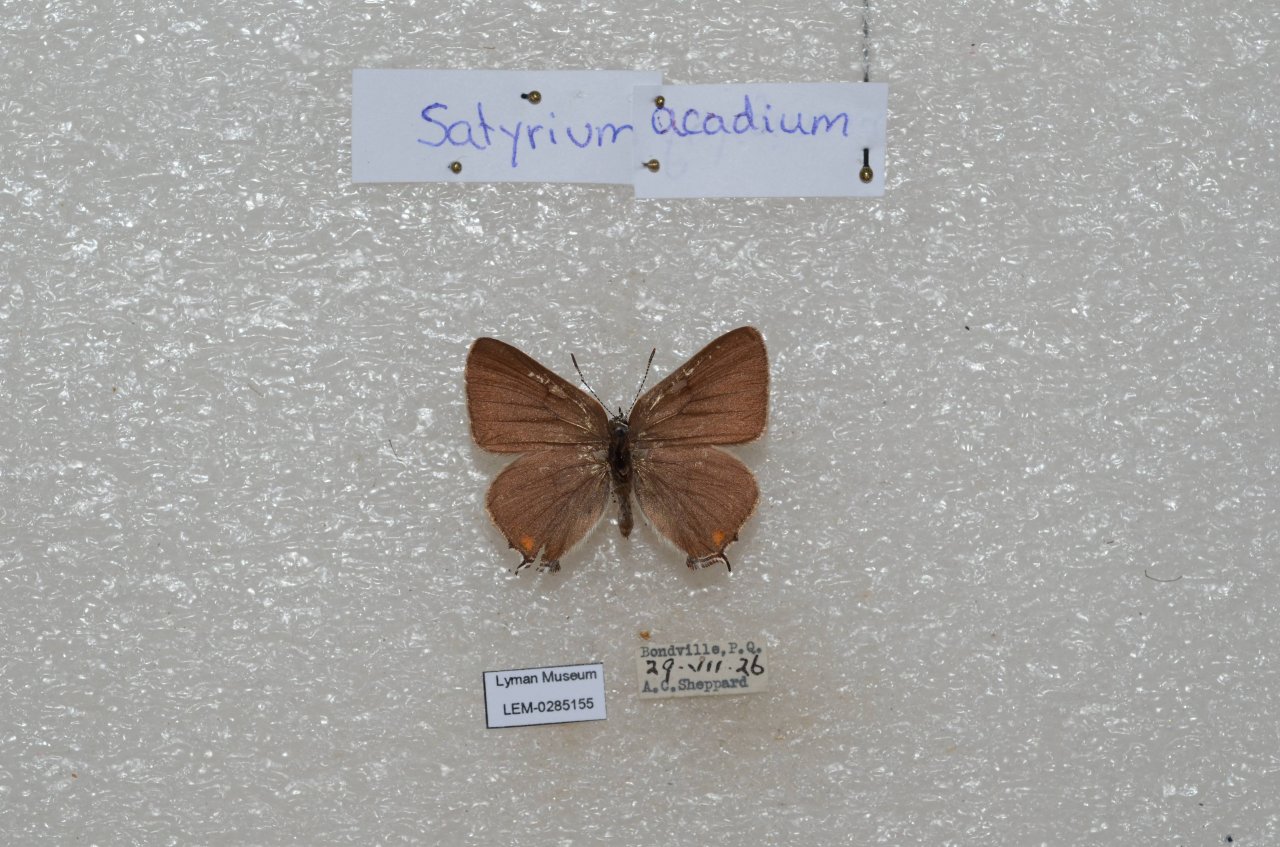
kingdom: Animalia
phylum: Arthropoda
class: Insecta
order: Lepidoptera
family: Lycaenidae
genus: Strymon
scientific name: Strymon acadica
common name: Acadian Hairstreak
